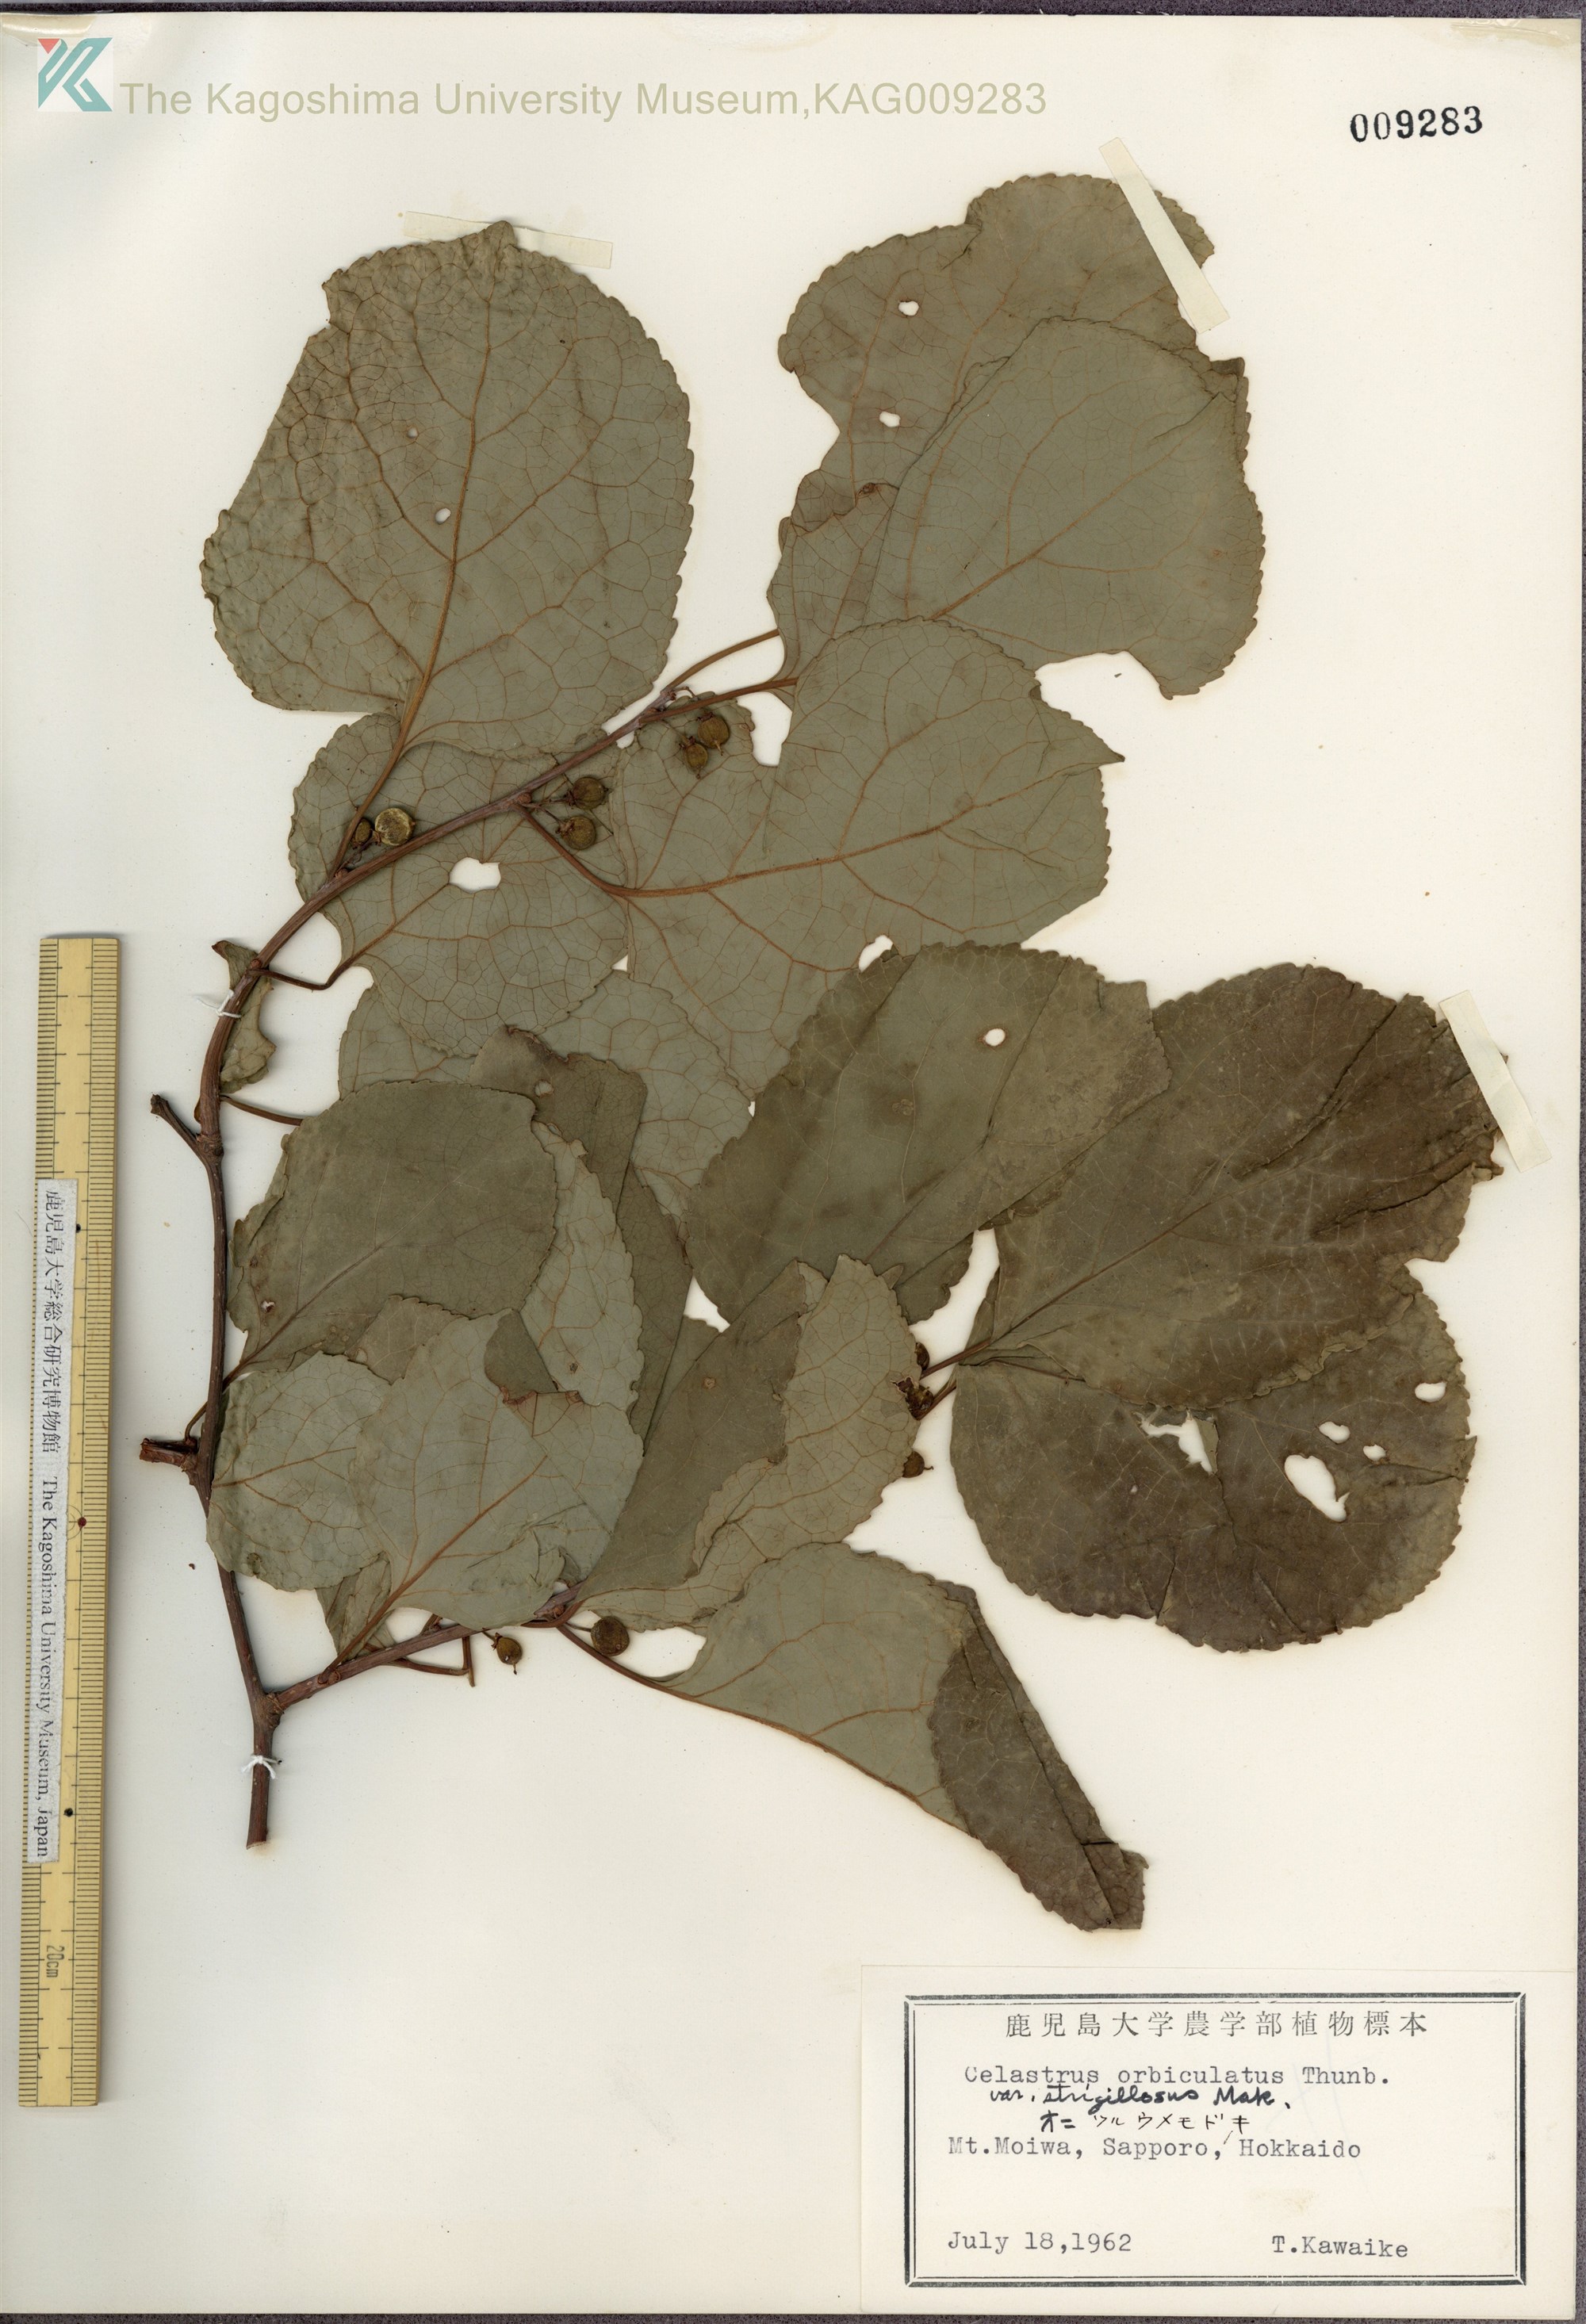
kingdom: Plantae
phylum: Tracheophyta
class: Magnoliopsida
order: Celastrales
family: Celastraceae
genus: Celastrus
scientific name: Celastrus orbiculatus
